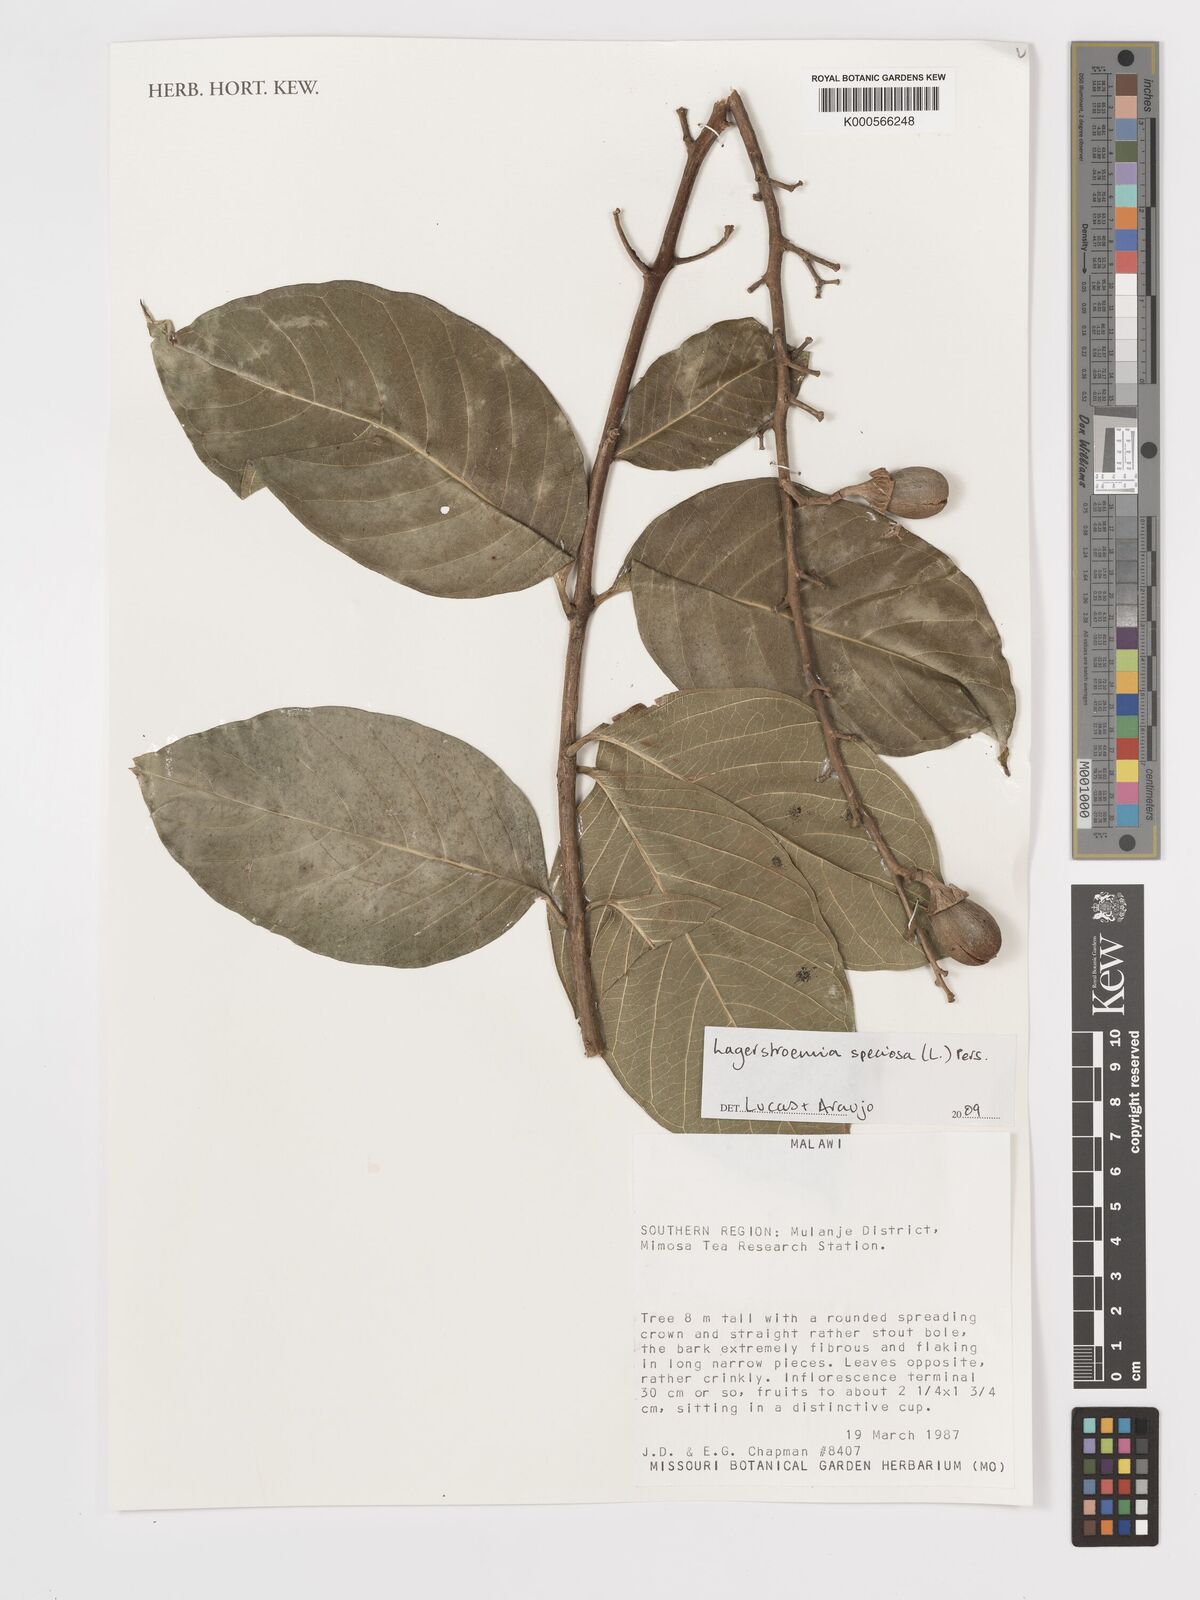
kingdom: Plantae
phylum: Tracheophyta
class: Magnoliopsida
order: Myrtales
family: Lythraceae
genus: Lagerstroemia
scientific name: Lagerstroemia speciosa
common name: Queen's crape-myrtle
